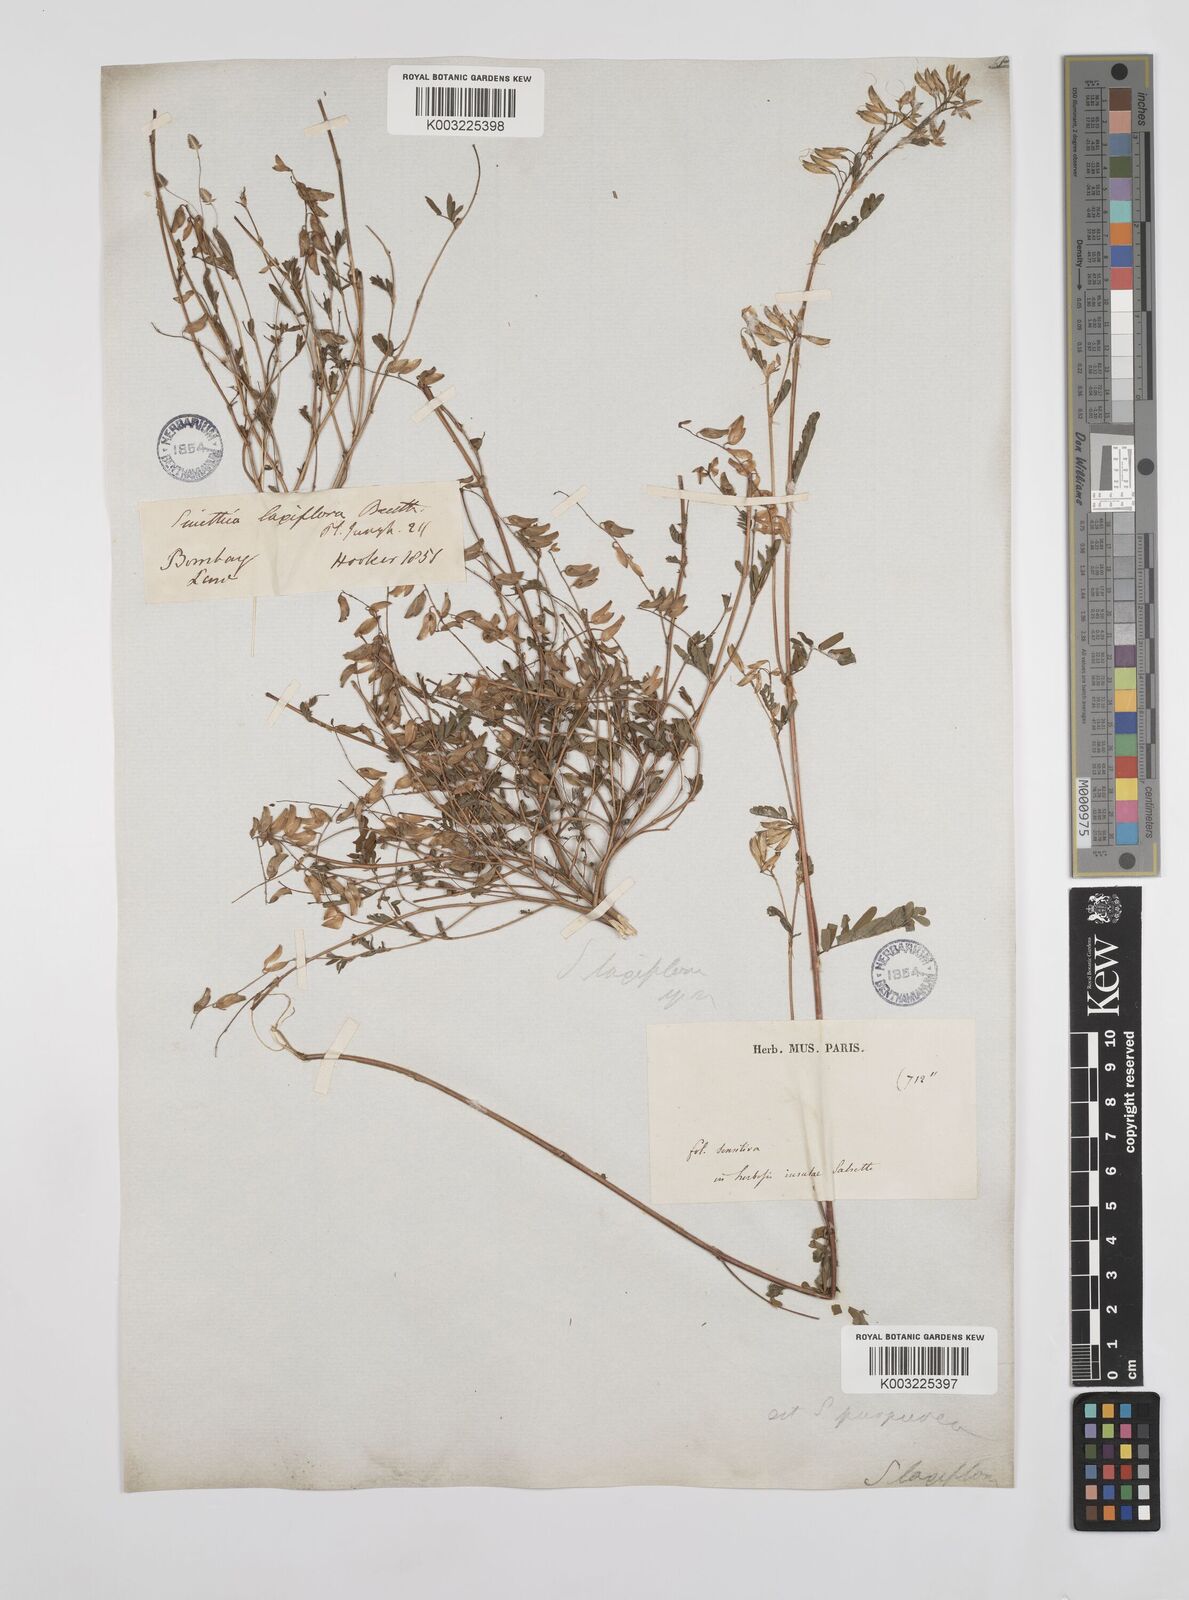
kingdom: Plantae
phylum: Tracheophyta
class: Magnoliopsida
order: Fabales
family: Fabaceae
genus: Smithia
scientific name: Smithia purpurea
